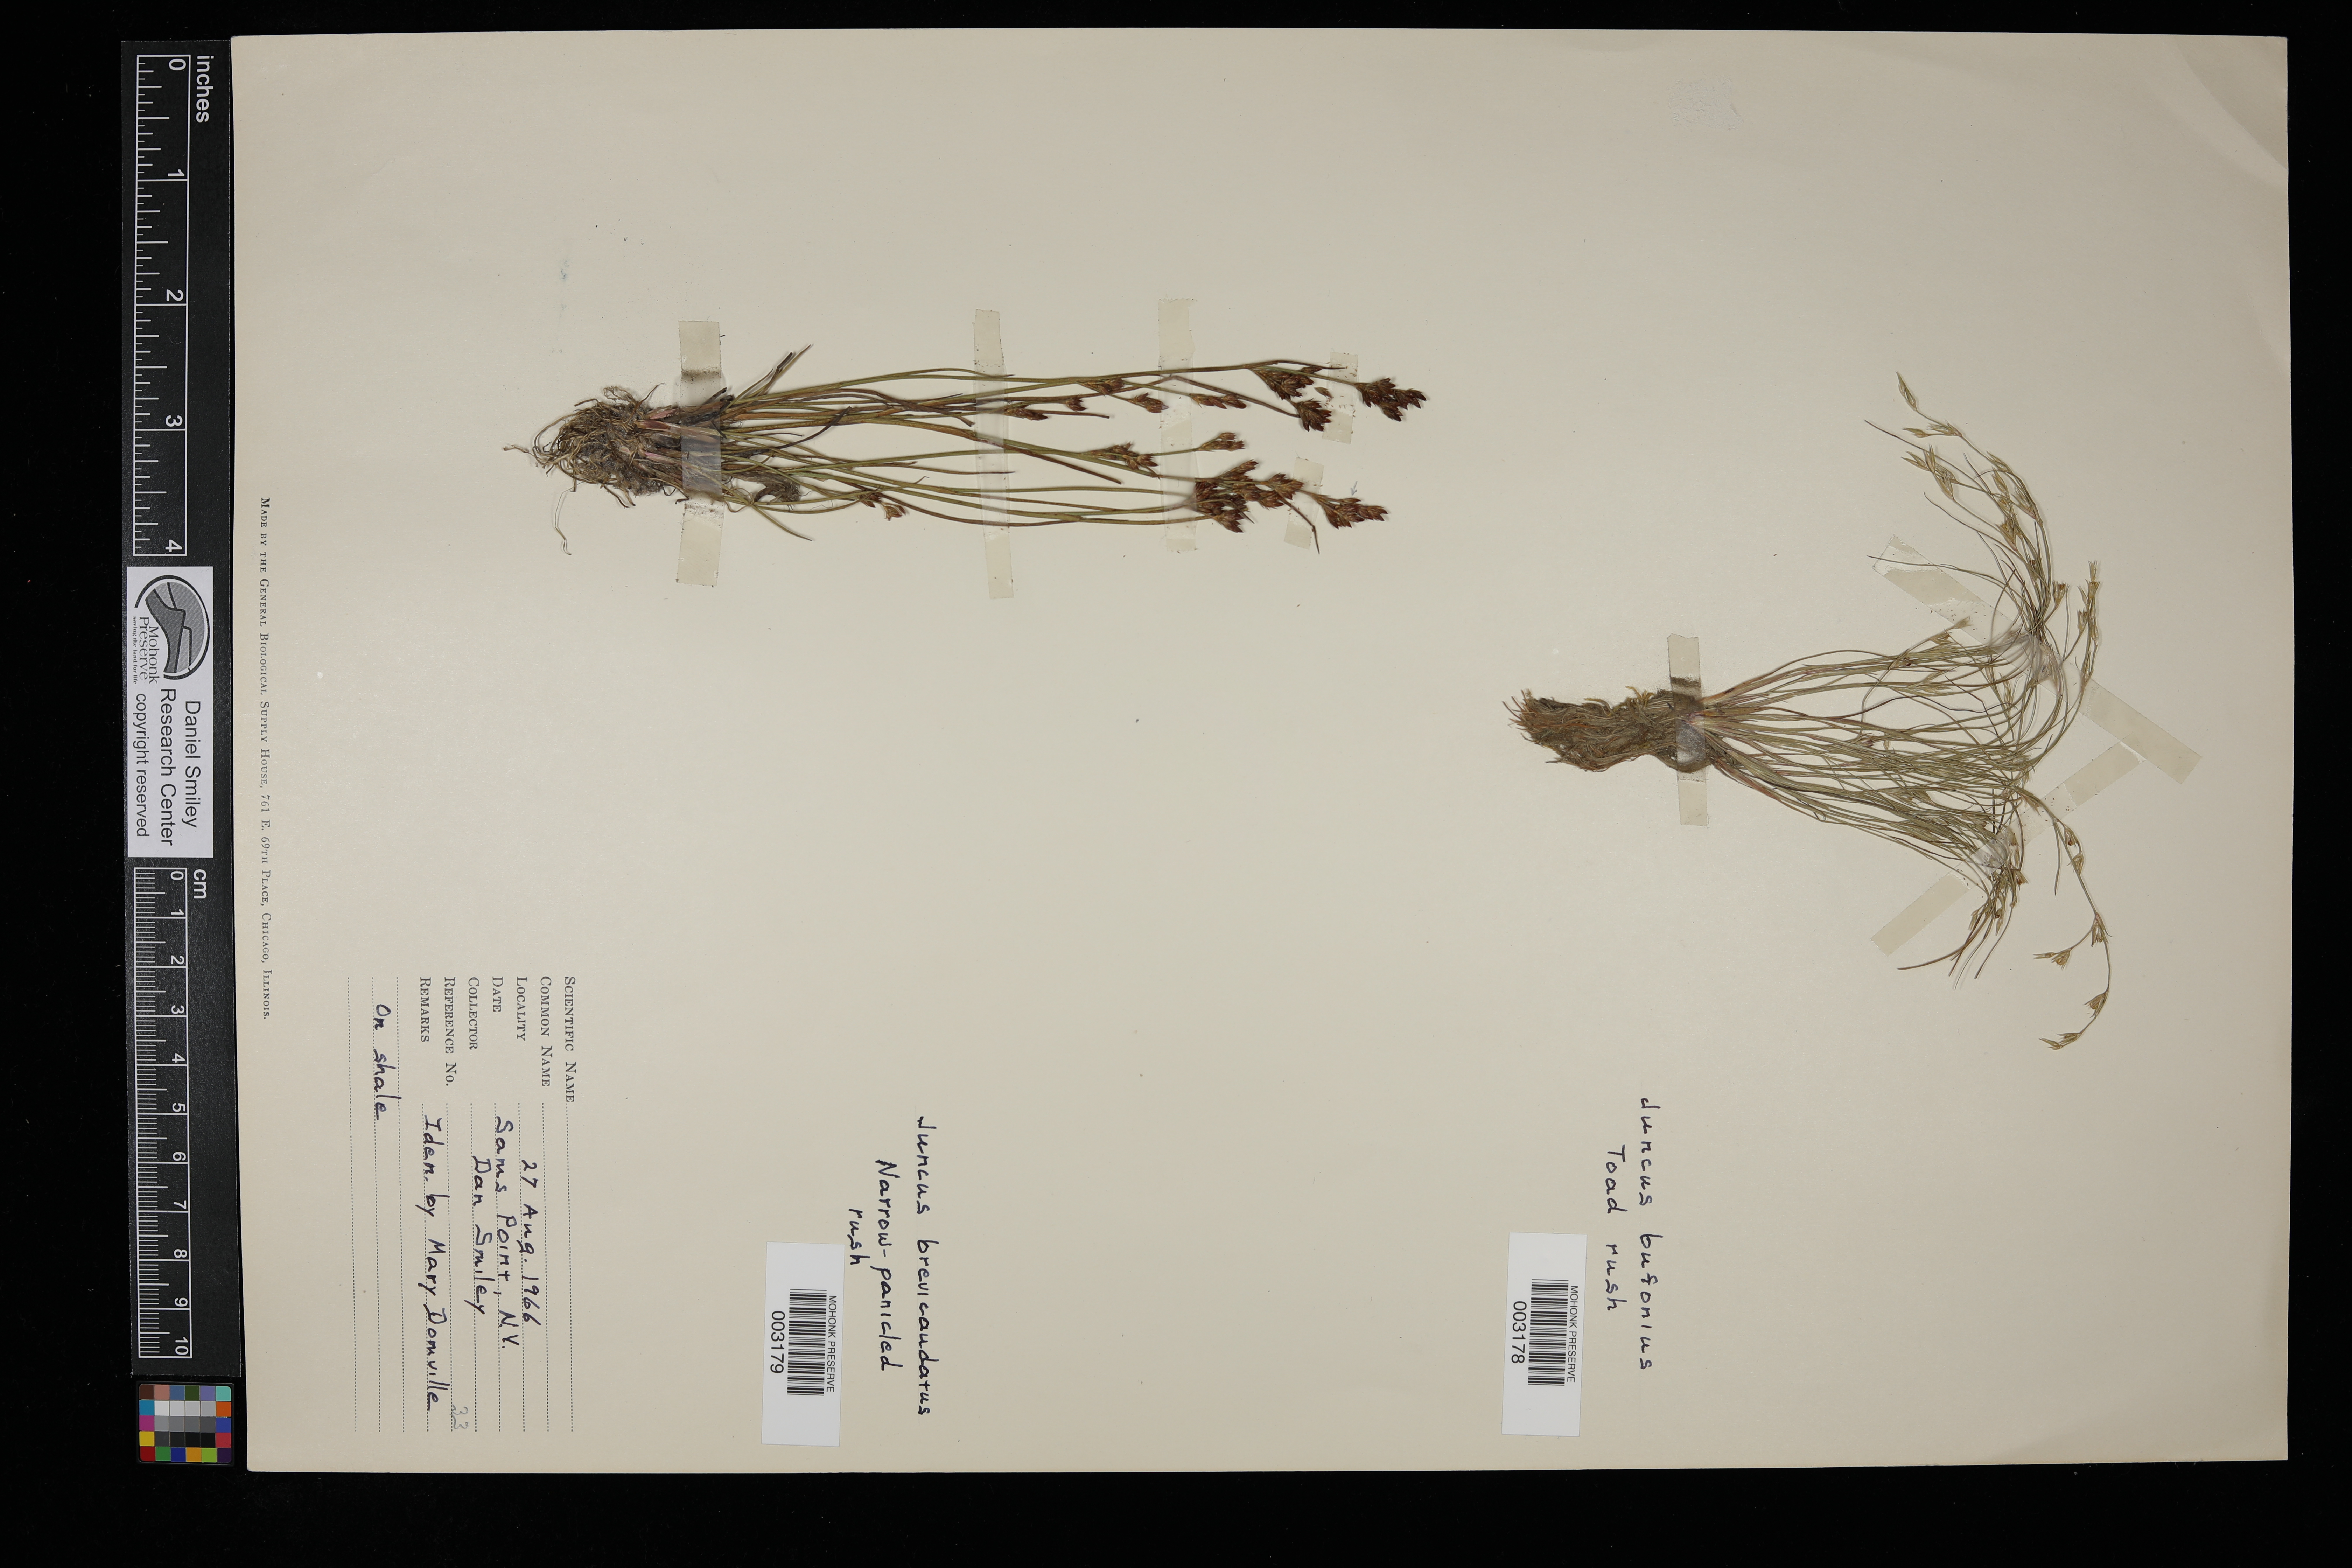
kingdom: Plantae
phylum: Tracheophyta
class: Liliopsida
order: Poales
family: Juncaceae
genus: Juncus
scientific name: Juncus bufonius
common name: Toad rush
